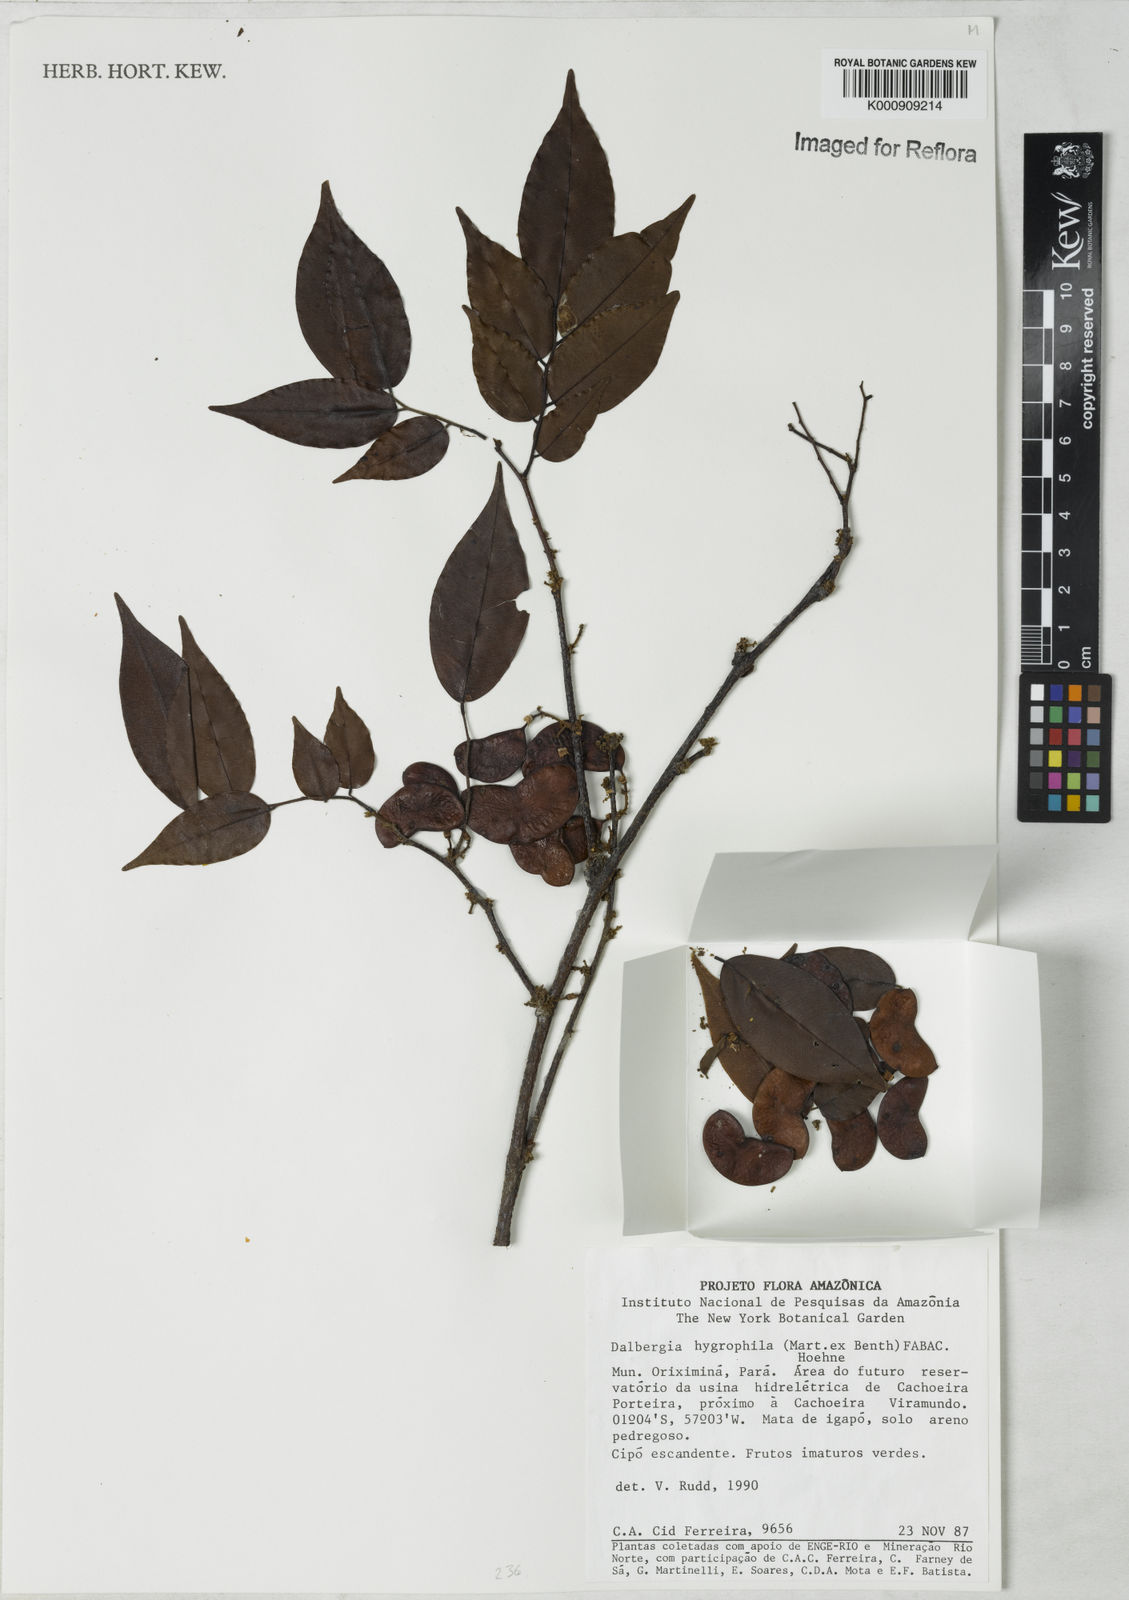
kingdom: Plantae
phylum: Tracheophyta
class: Magnoliopsida
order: Fabales
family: Fabaceae
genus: Dalbergia
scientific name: Dalbergia hygrophila
